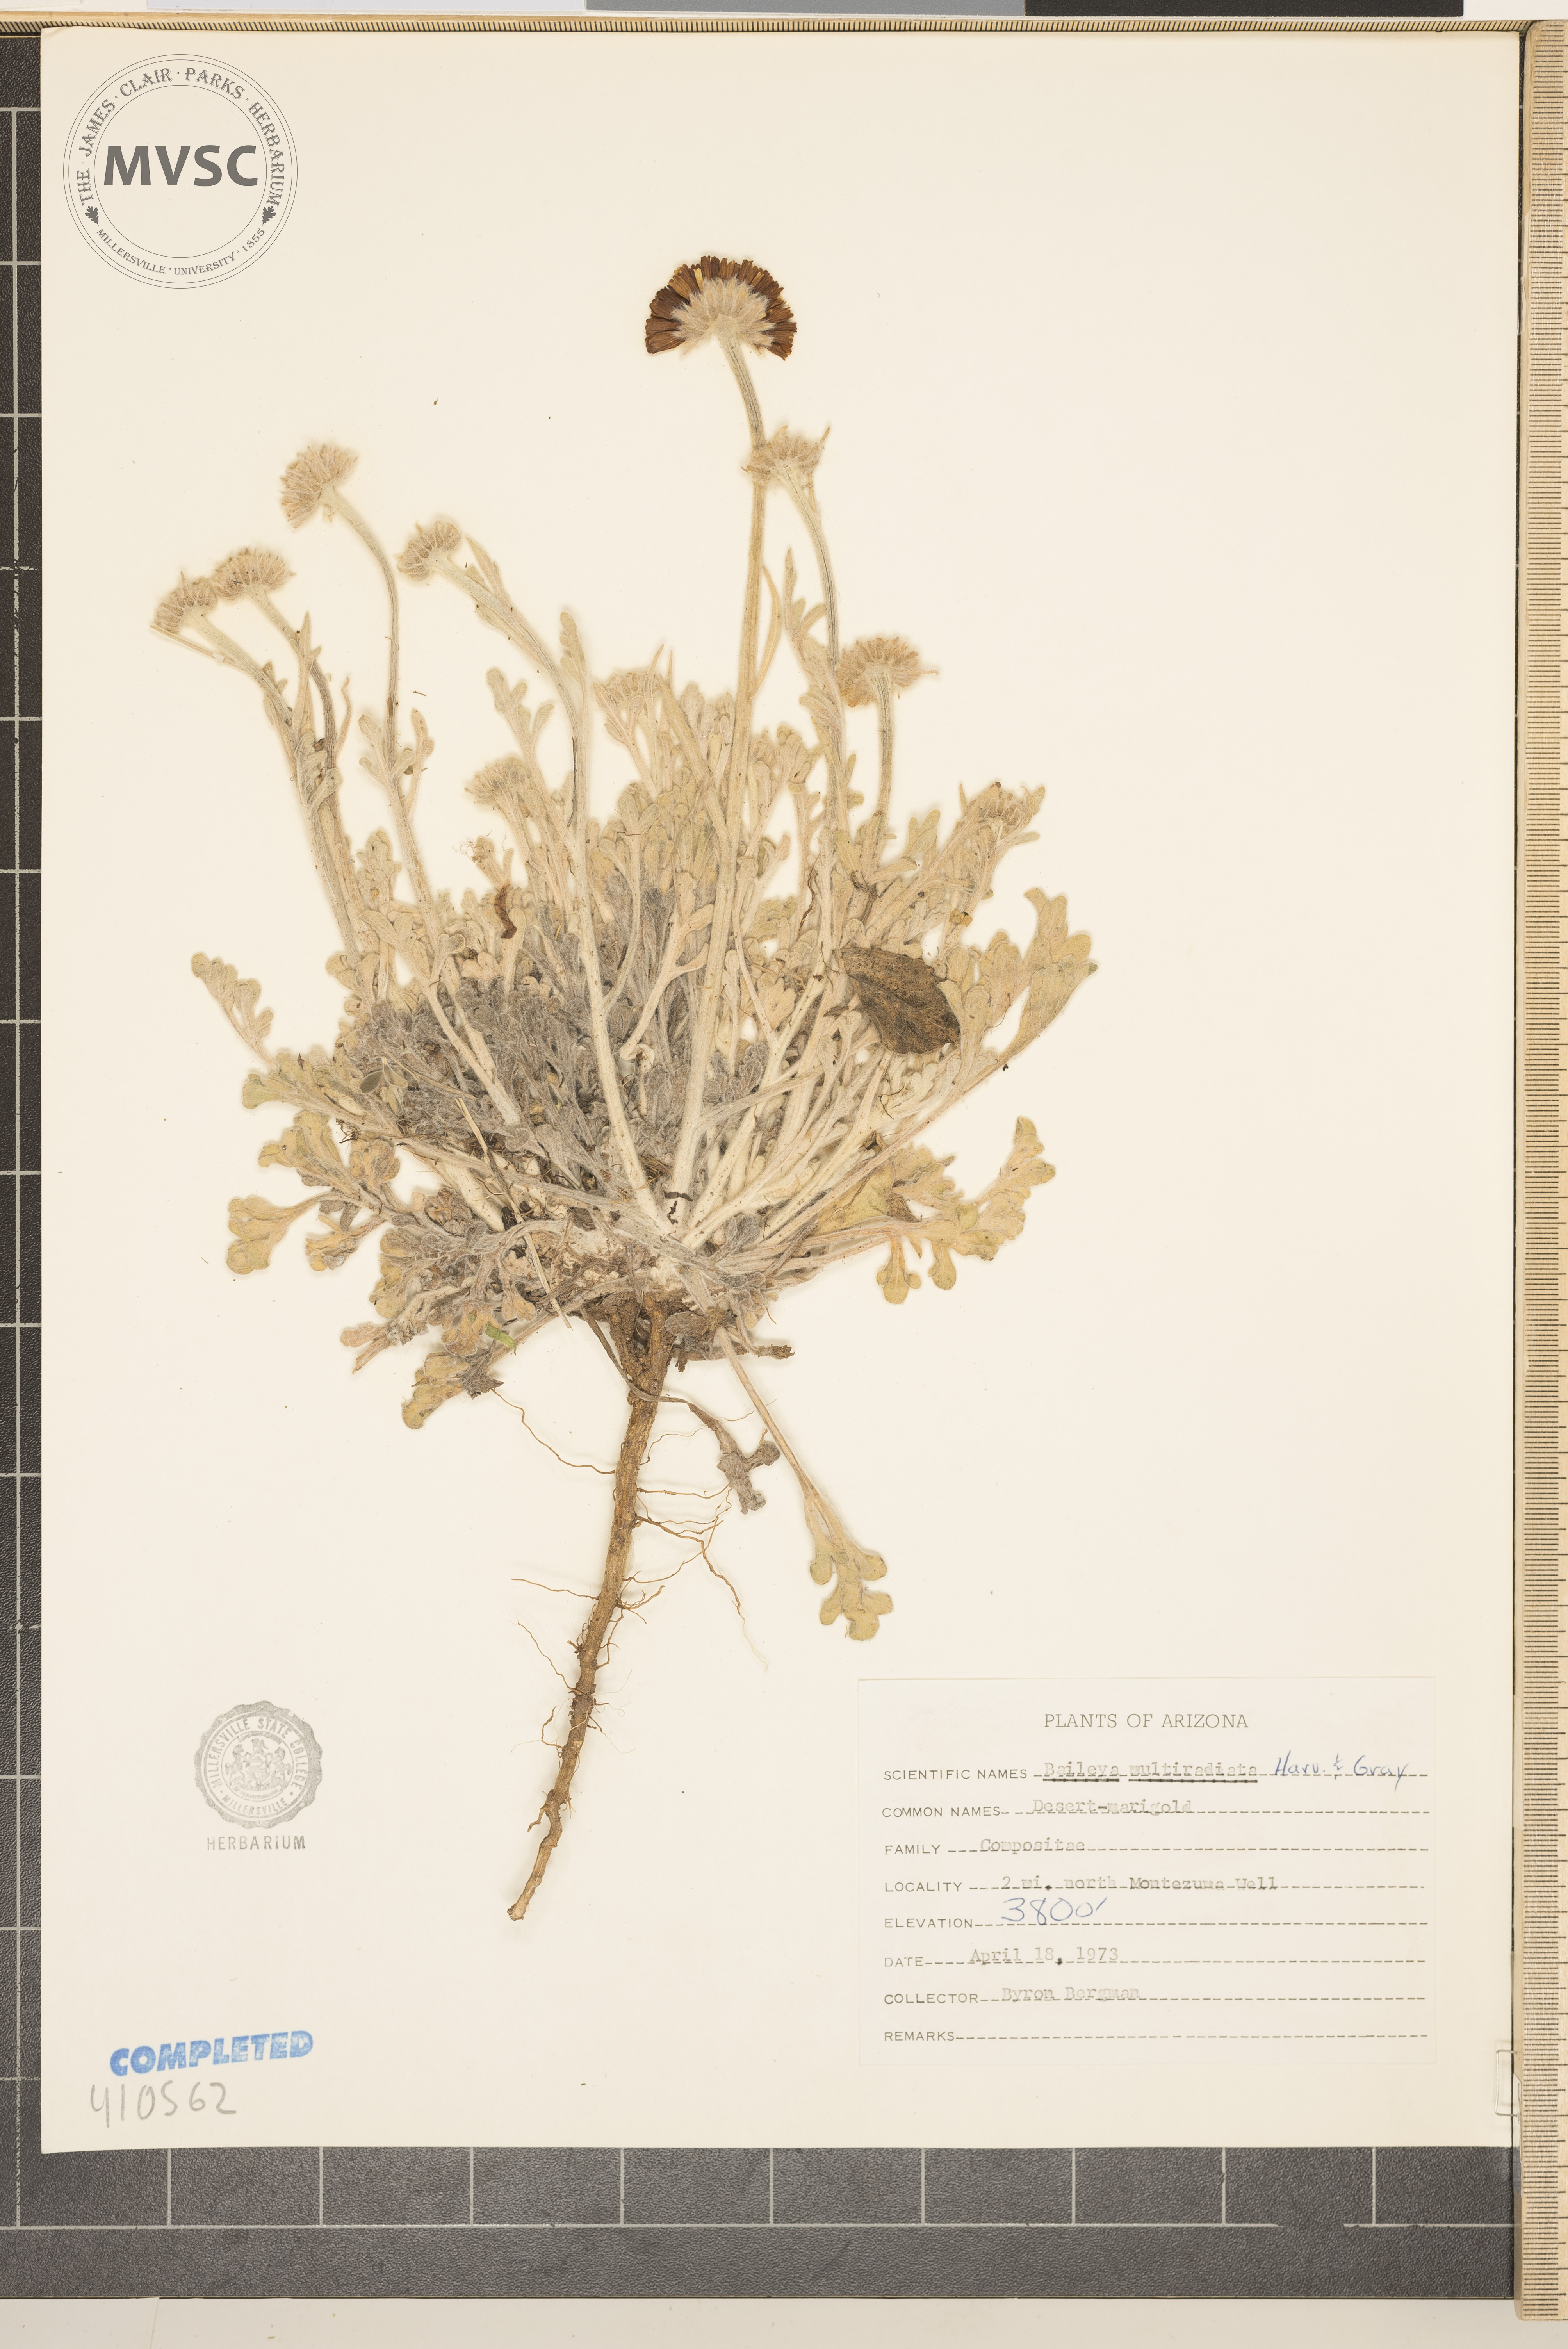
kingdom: Plantae
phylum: Tracheophyta
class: Magnoliopsida
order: Asterales
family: Asteraceae
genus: Baileya
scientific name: Baileya multiradiata
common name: Desert-marigold
